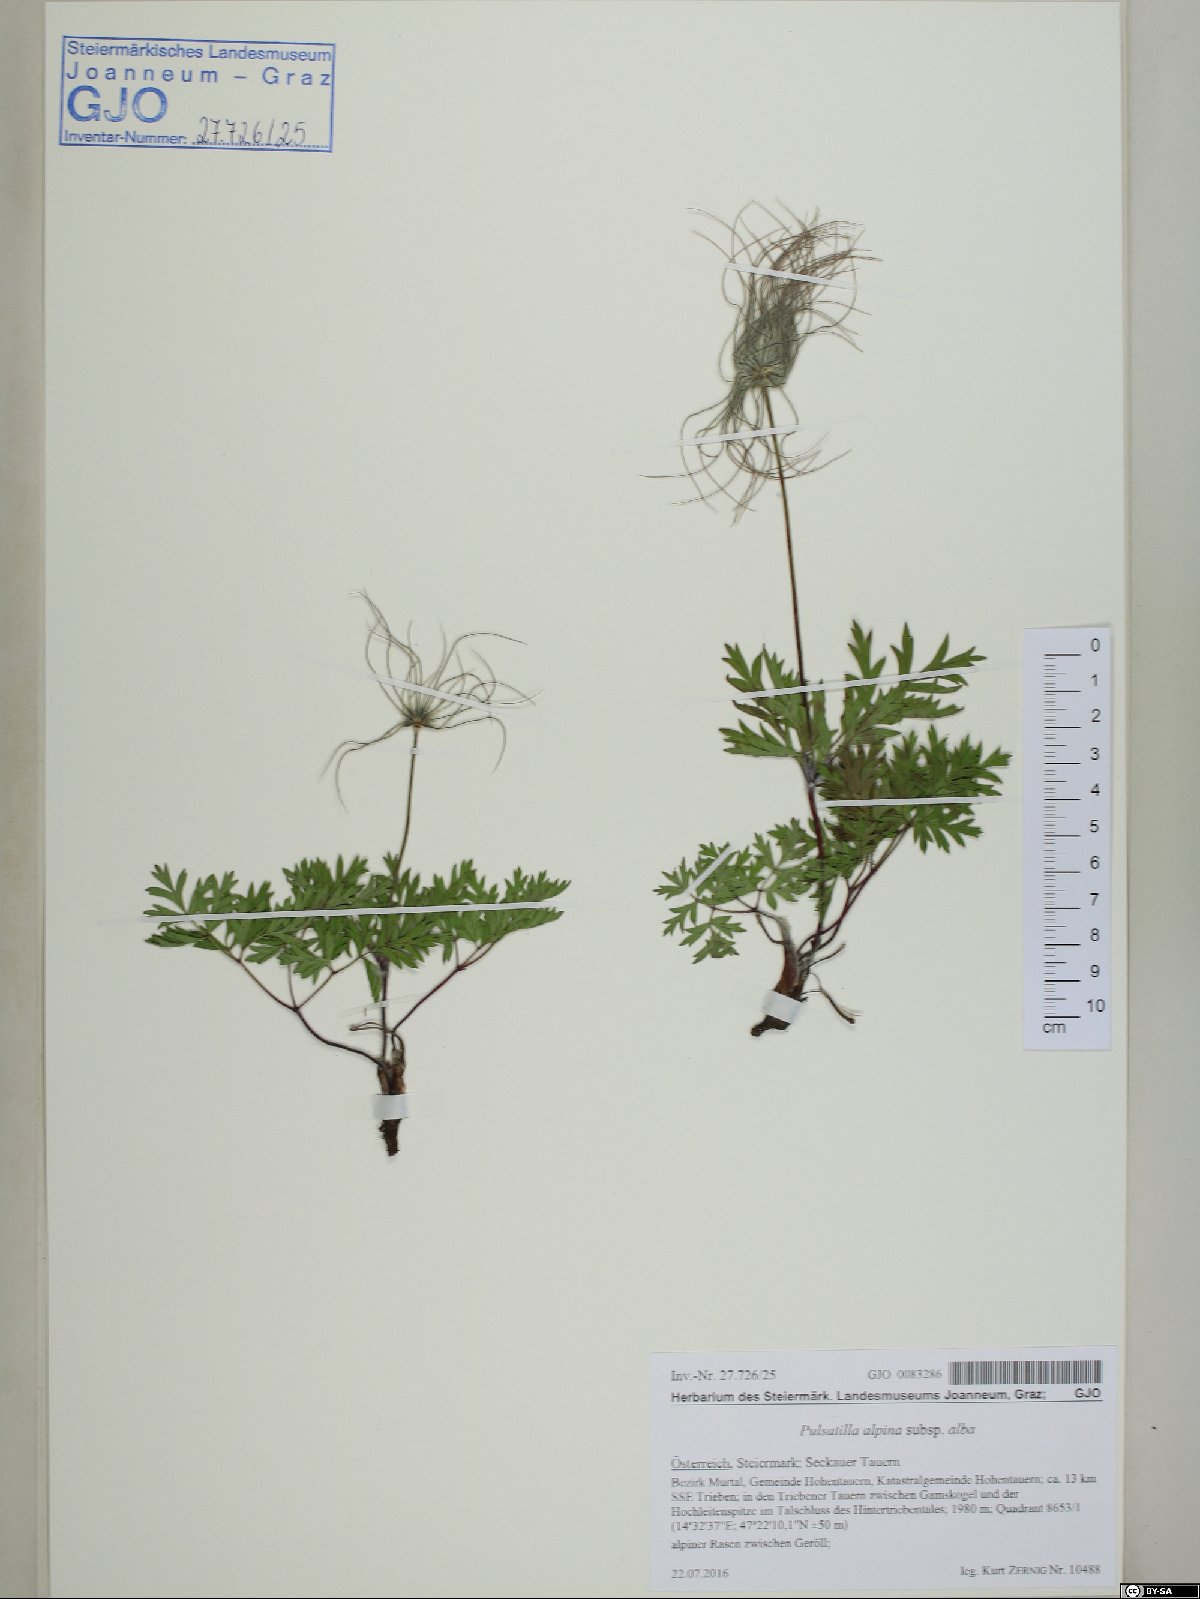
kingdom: Plantae
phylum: Tracheophyta
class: Magnoliopsida
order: Ranunculales
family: Ranunculaceae
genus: Pulsatilla
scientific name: Pulsatilla alpina
